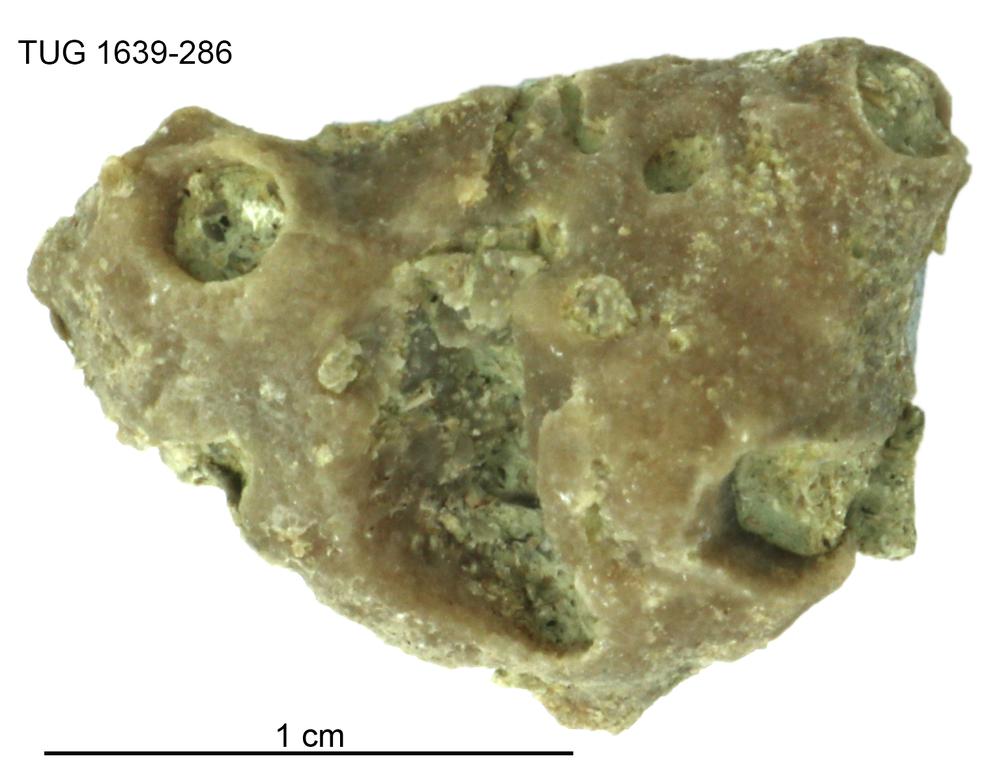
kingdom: Animalia
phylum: Bryozoa
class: Stenolaemata
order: Cystoporida
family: Fistuliporidae
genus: Fistulipora
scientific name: Fistulipora przhidolensis
